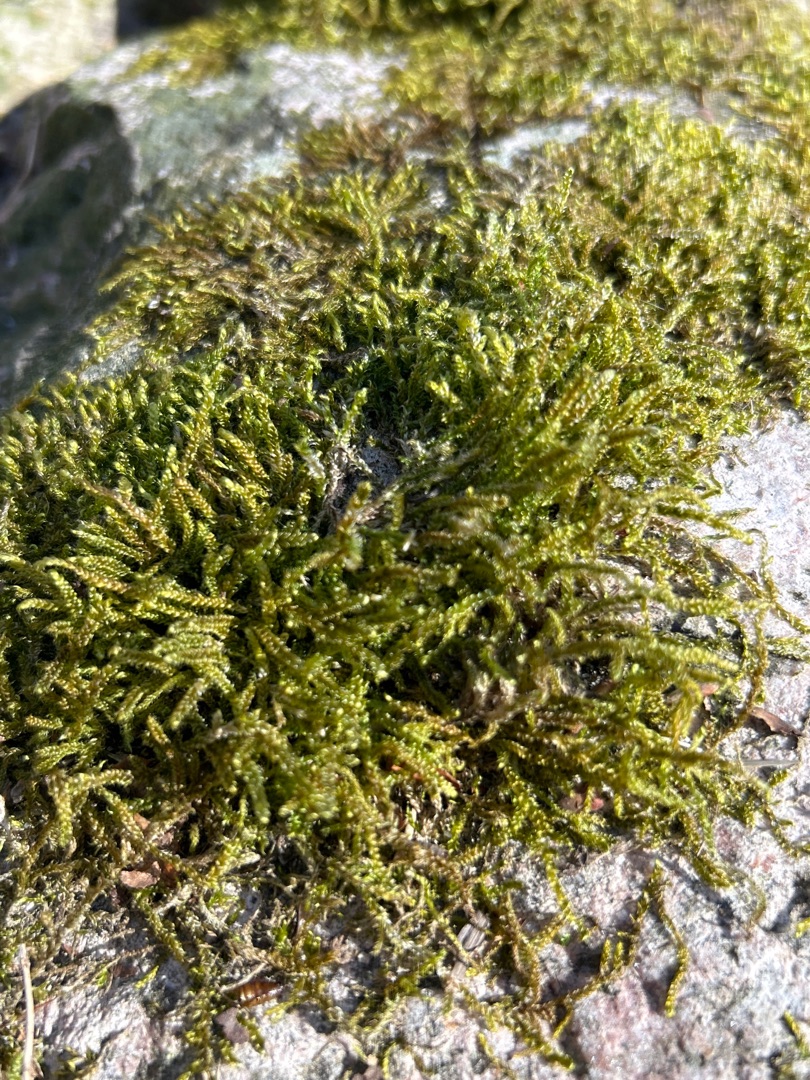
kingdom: Plantae
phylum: Bryophyta
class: Bryopsida
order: Hypnales
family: Hypnaceae
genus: Hypnum
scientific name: Hypnum cupressiforme
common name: Almindelig cypresmos
